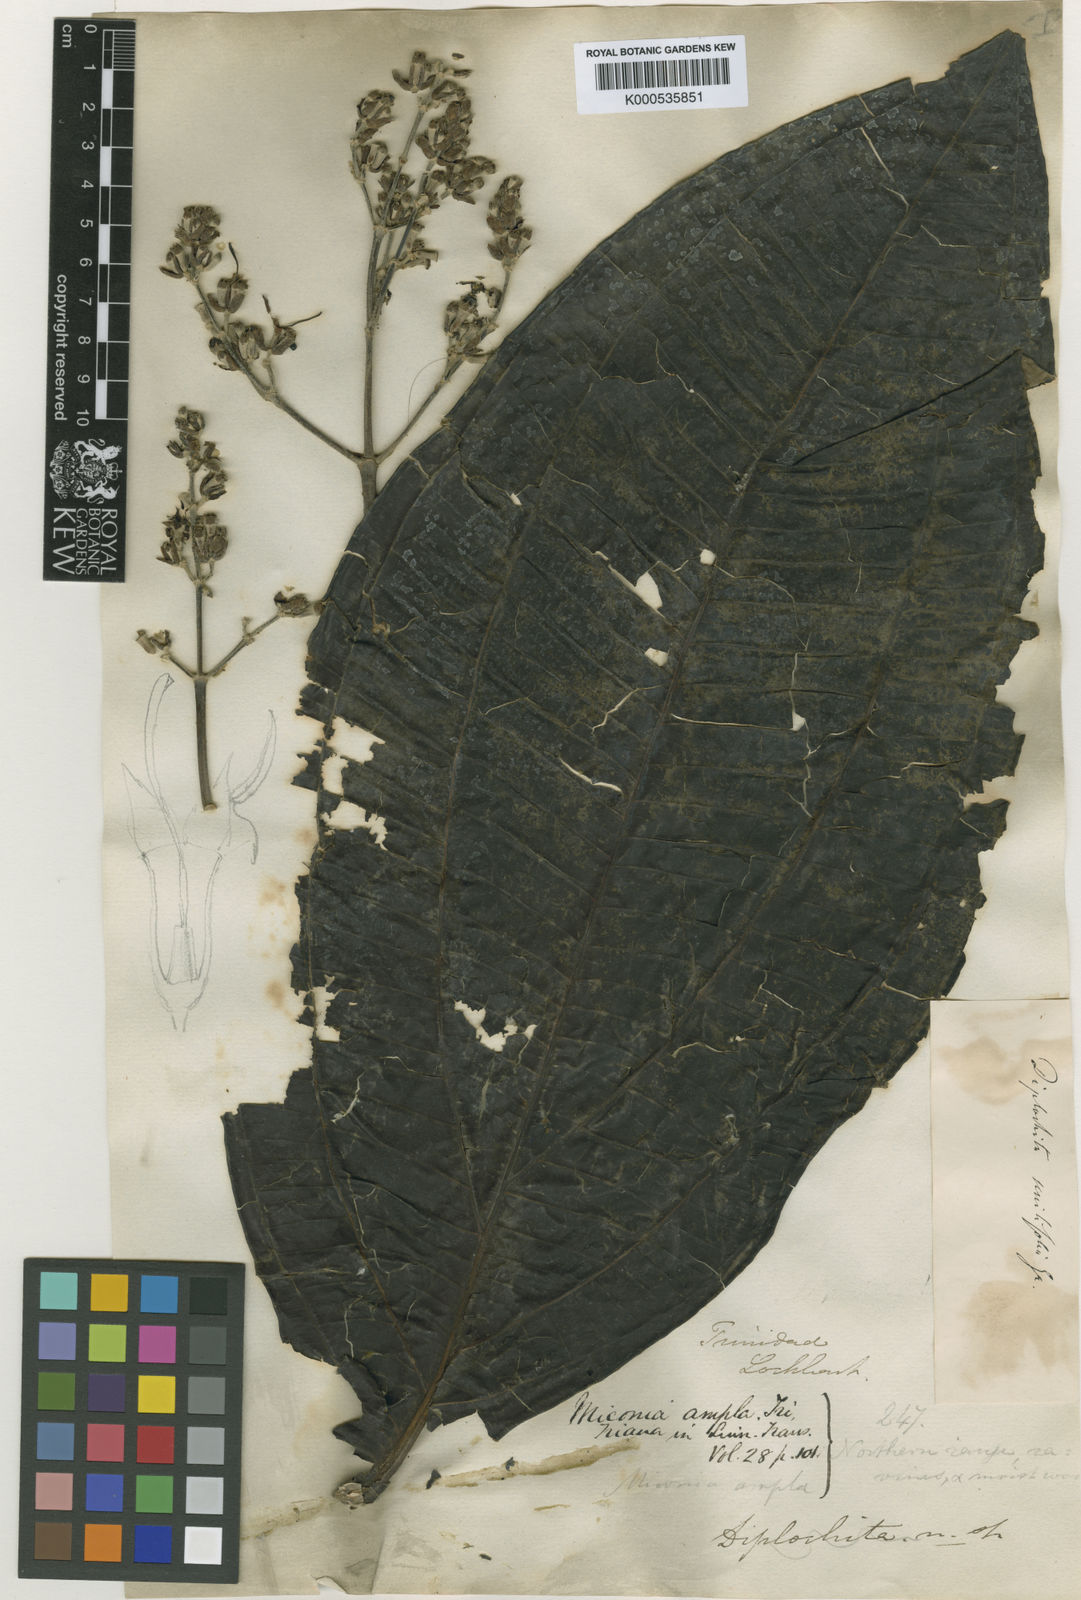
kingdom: Plantae
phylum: Tracheophyta
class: Magnoliopsida
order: Myrtales
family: Melastomataceae
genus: Miconia
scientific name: Miconia ampla
